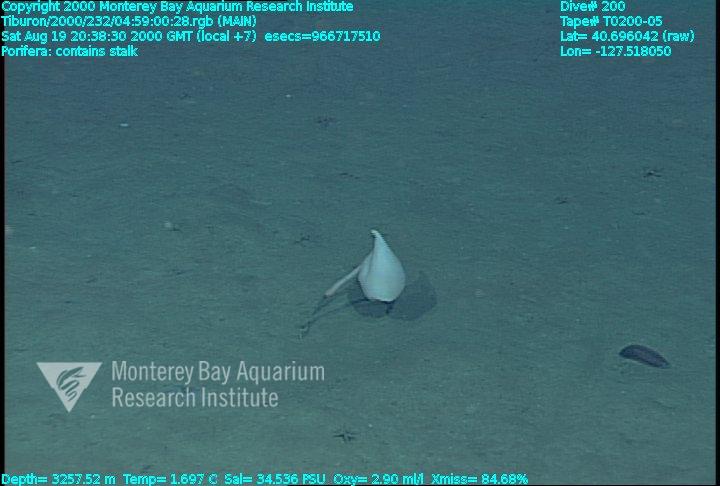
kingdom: Animalia
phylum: Porifera
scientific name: Porifera
